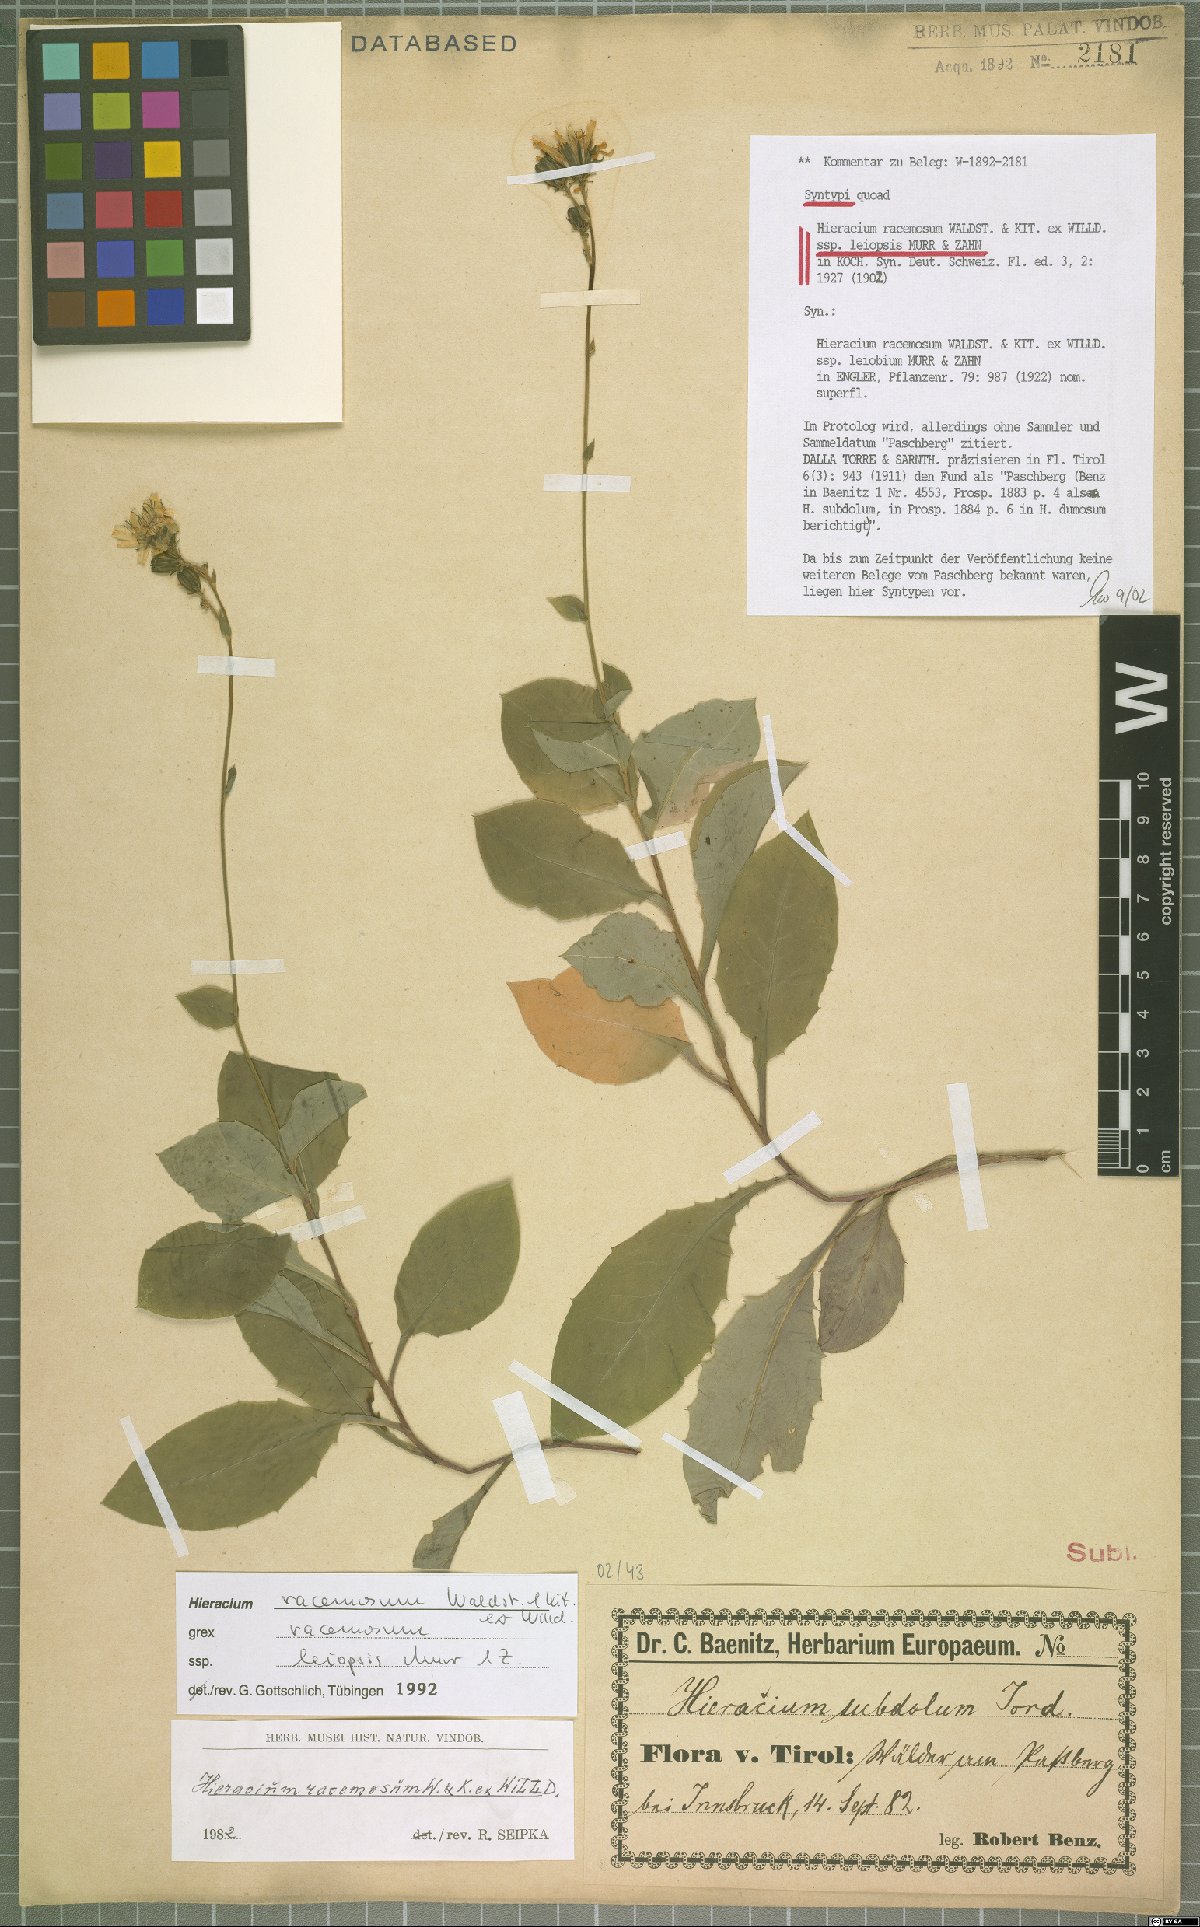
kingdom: Plantae
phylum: Tracheophyta
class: Magnoliopsida
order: Asterales
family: Asteraceae
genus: Hieracium
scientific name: Hieracium racemosum
